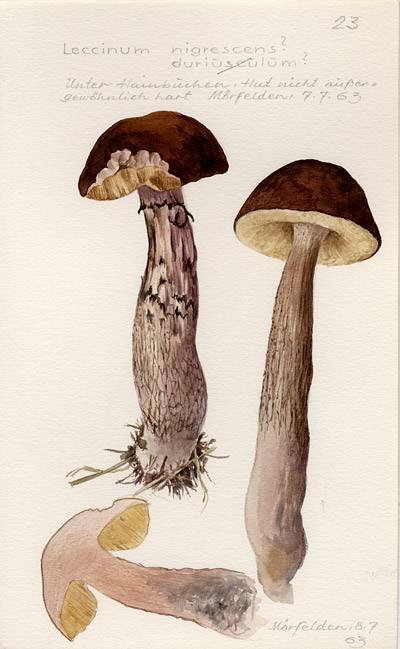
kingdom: Fungi
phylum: Basidiomycota
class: Agaricomycetes
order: Boletales
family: Boletaceae
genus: Leccinellum
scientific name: Leccinellum crocipodium
